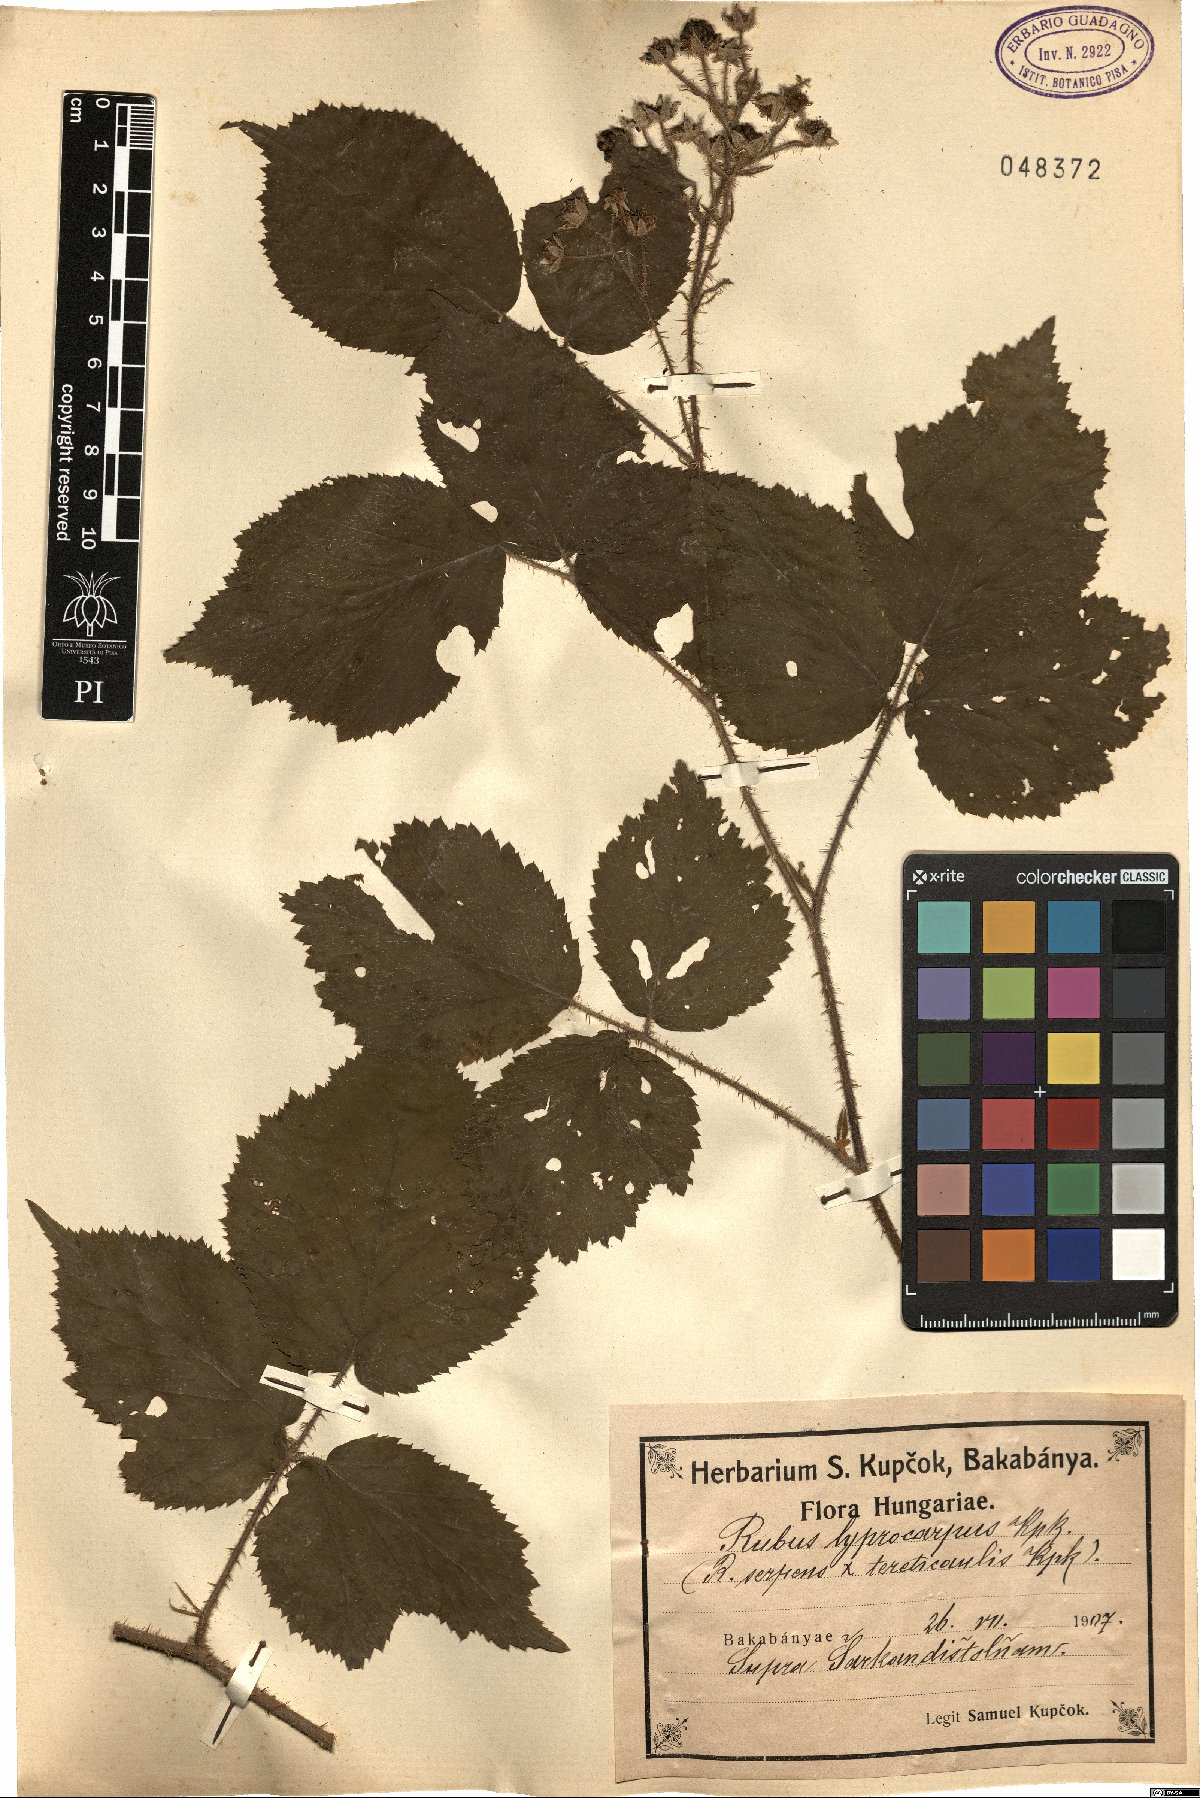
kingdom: Plantae
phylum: Tracheophyta
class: Magnoliopsida
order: Rosales
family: Rosaceae
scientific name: Rosaceae
